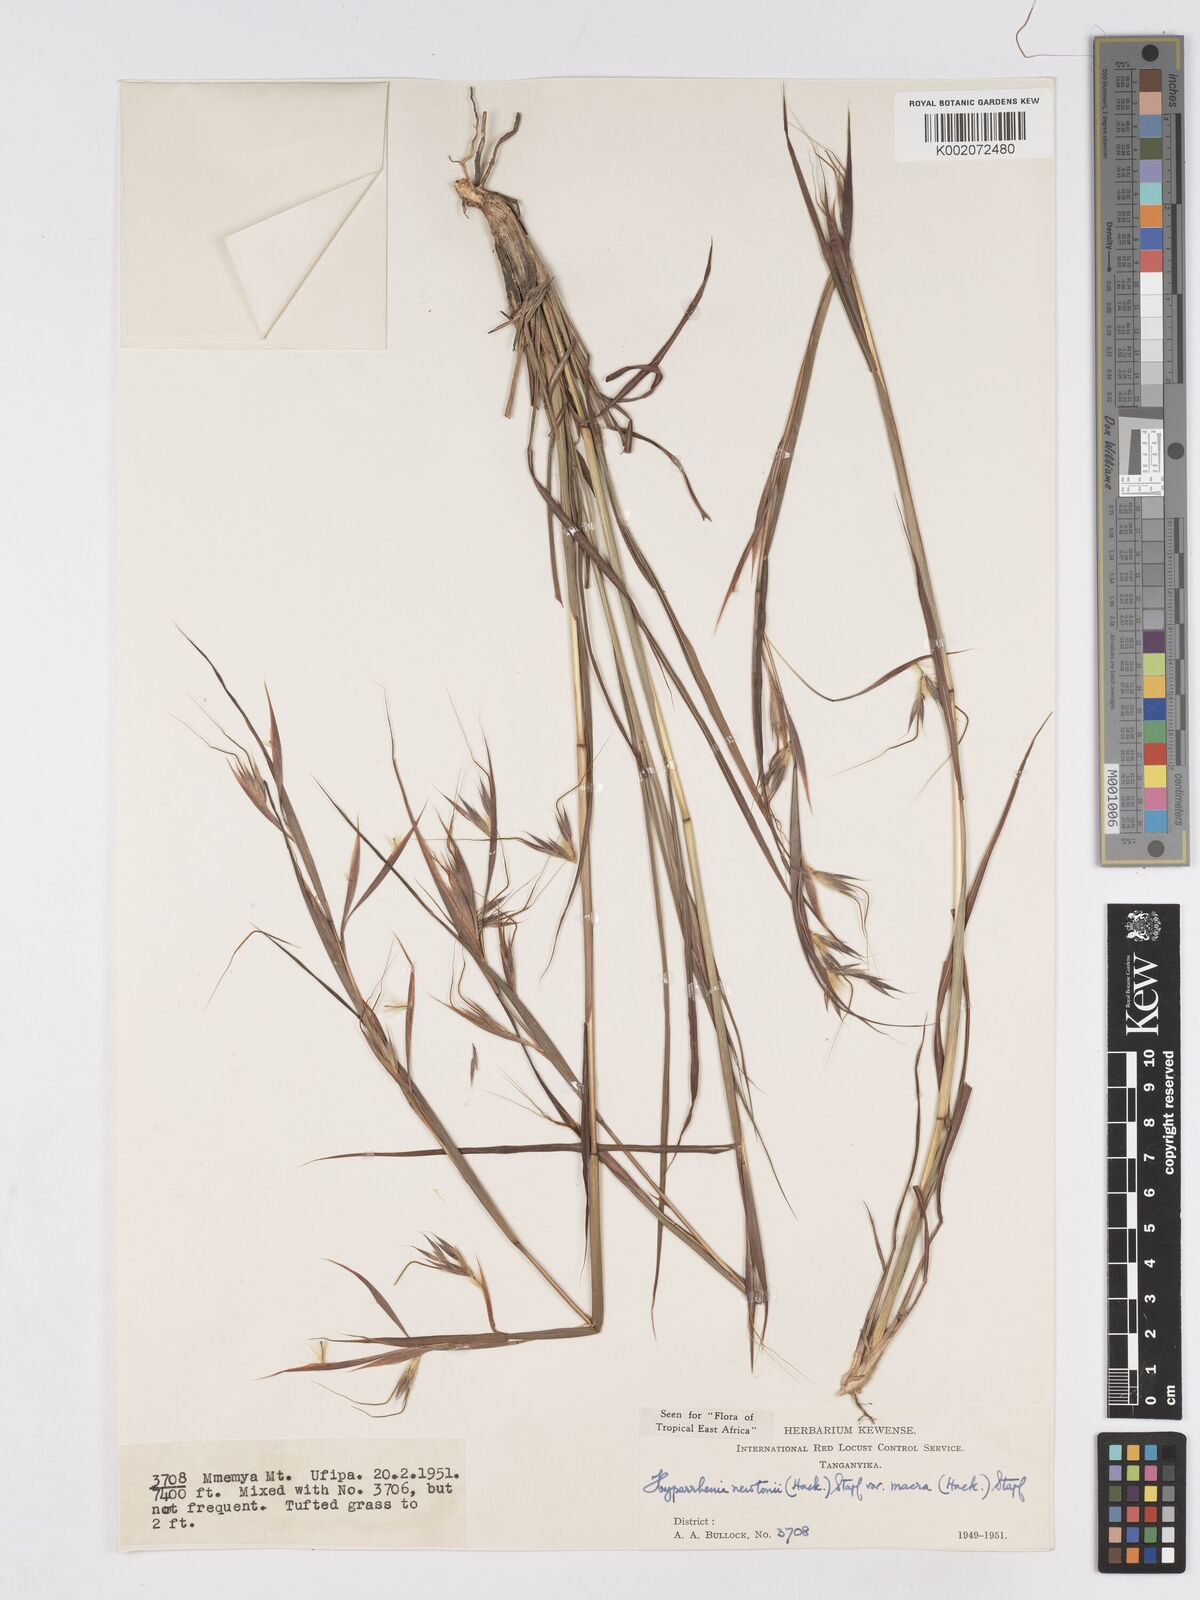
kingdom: Plantae
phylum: Tracheophyta
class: Liliopsida
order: Poales
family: Poaceae
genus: Hyparrhenia
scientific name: Hyparrhenia newtonii
